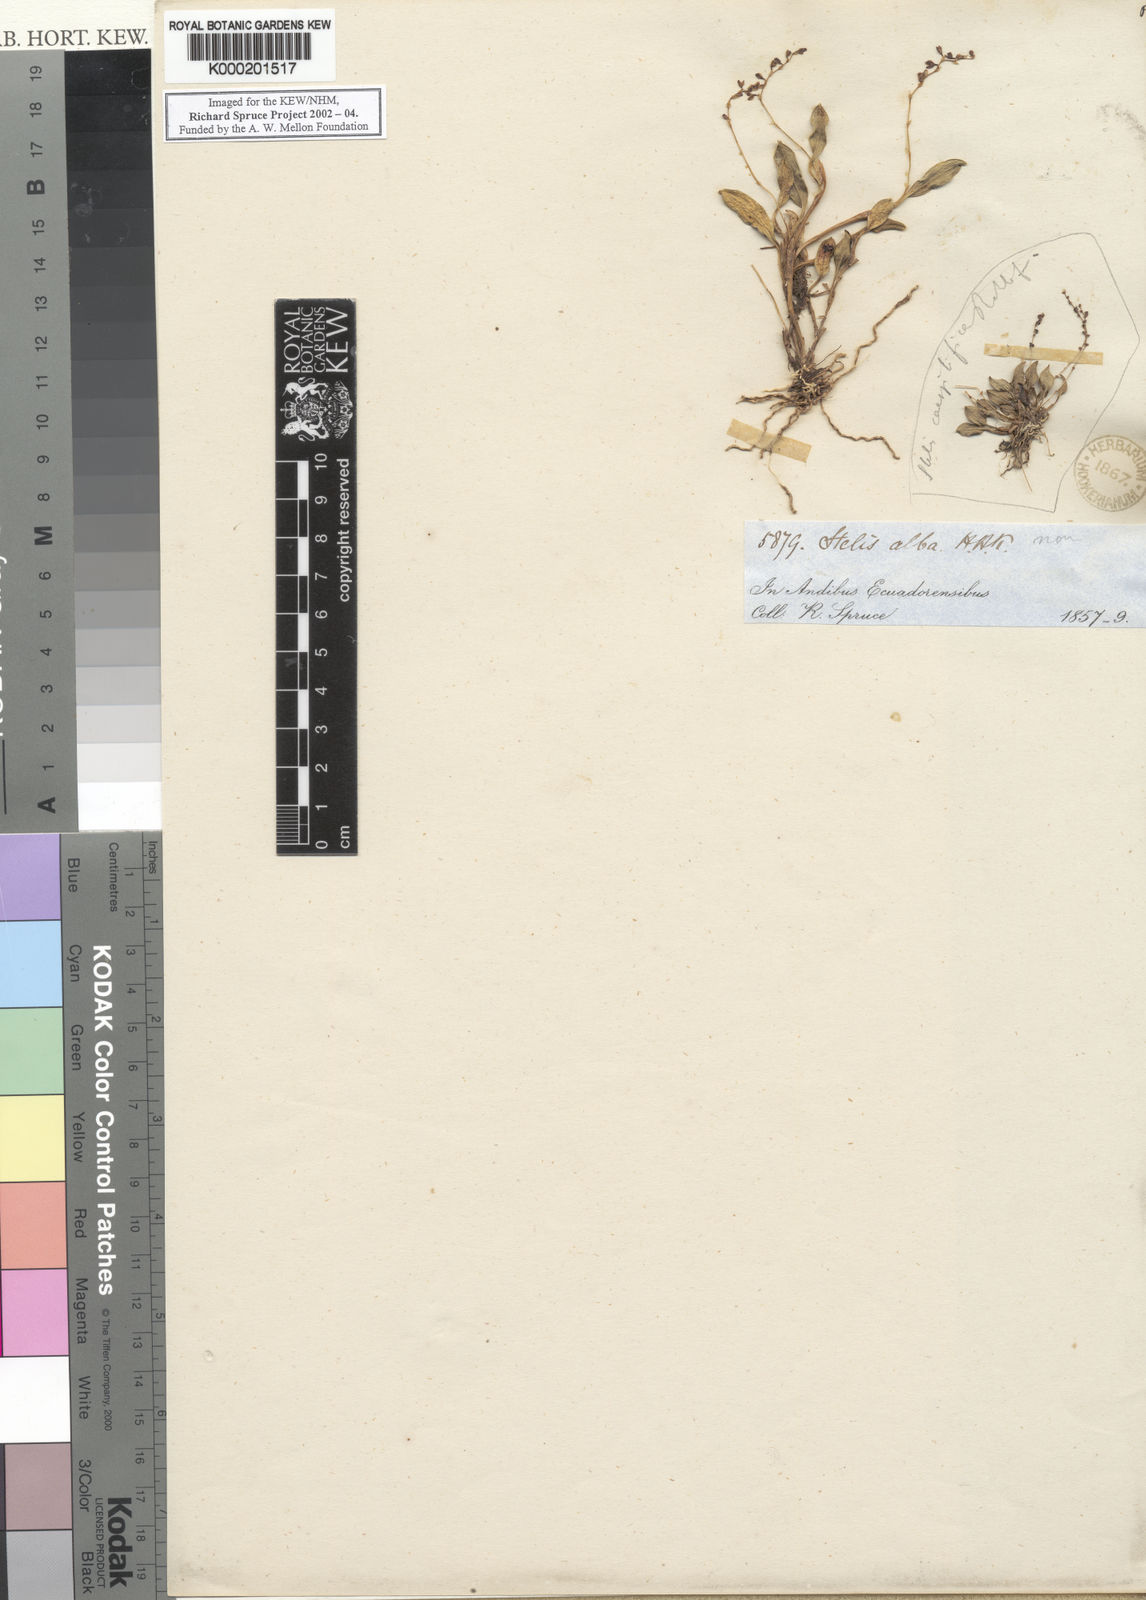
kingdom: Plantae
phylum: Tracheophyta
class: Liliopsida
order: Asparagales
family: Orchidaceae
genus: Stelis
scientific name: Stelis nitens
